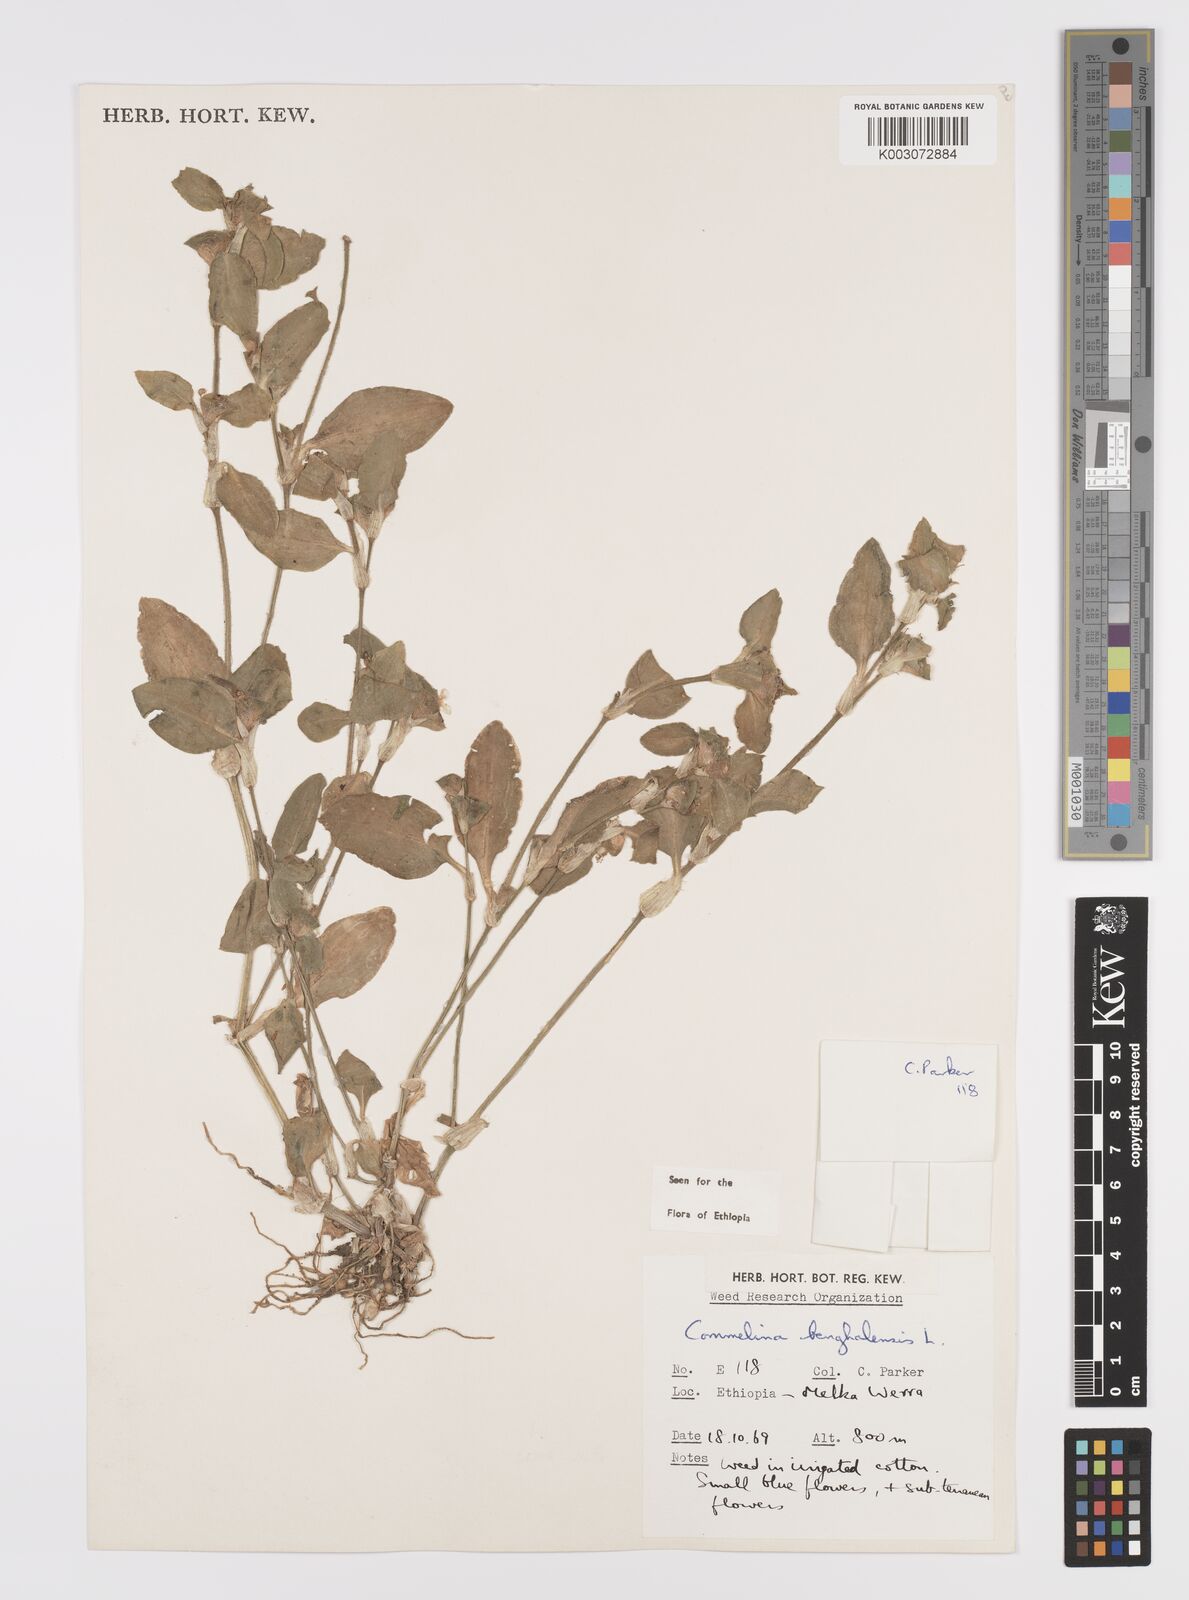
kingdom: Plantae
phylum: Tracheophyta
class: Liliopsida
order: Commelinales
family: Commelinaceae
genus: Commelina
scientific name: Commelina benghalensis
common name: Jio
